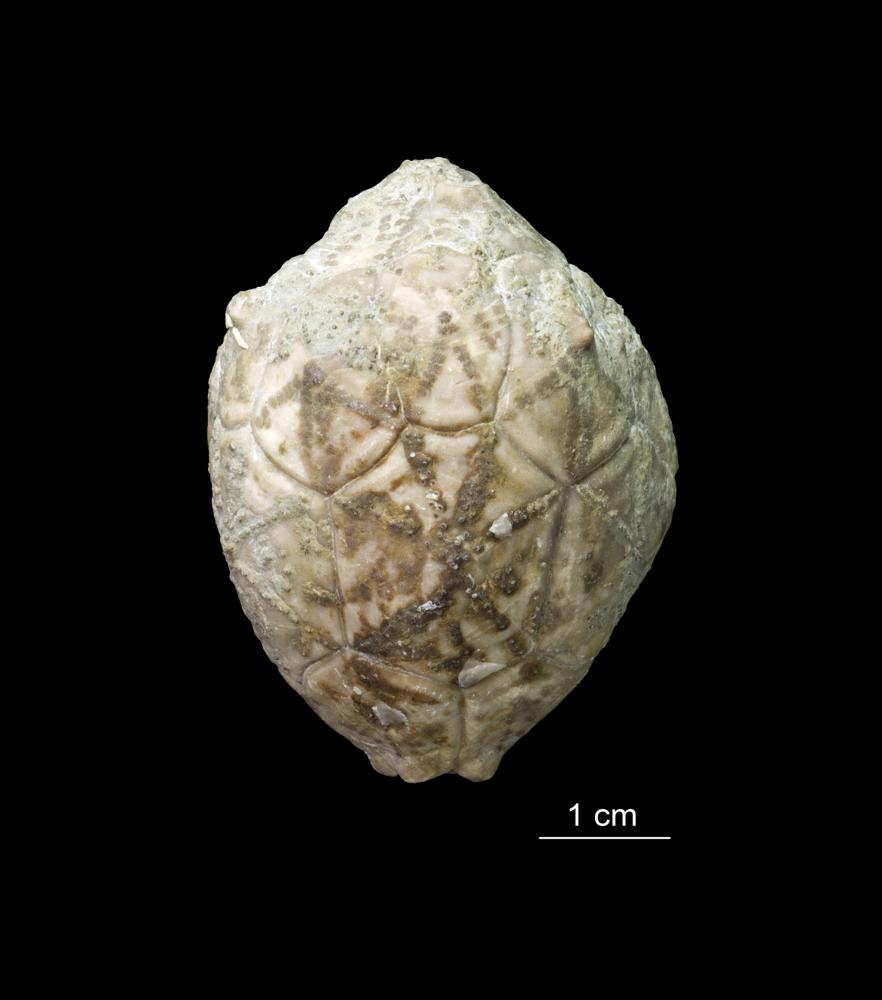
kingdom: Animalia
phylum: Echinodermata
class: Crinoidea
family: Hemicosmitidae
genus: Hemicosmites
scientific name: Hemicosmites extraneus
